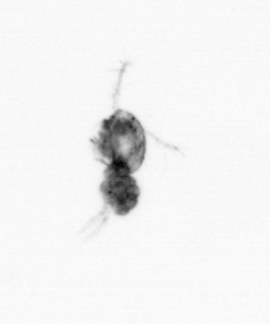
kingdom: Animalia
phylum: Arthropoda
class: Copepoda
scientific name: Copepoda
